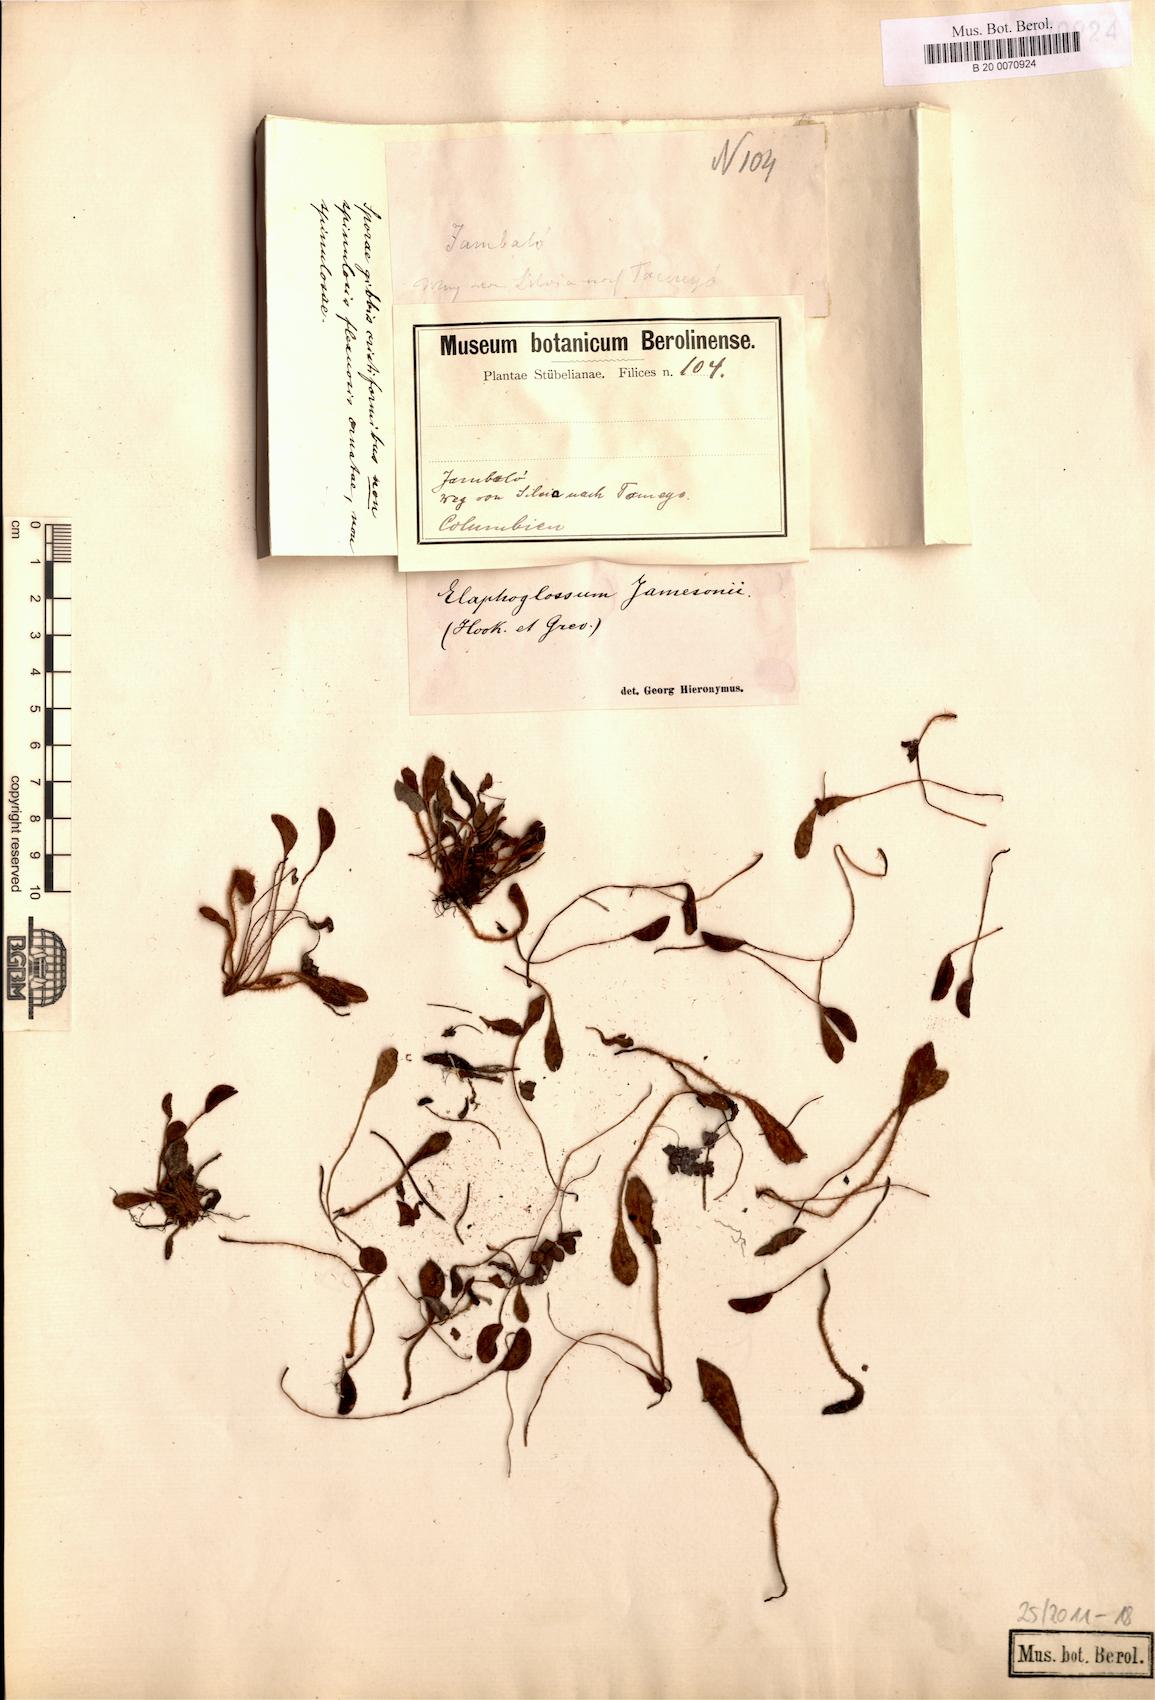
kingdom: Plantae
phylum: Tracheophyta
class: Polypodiopsida
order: Polypodiales
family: Dryopteridaceae
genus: Elaphoglossum
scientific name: Elaphoglossum piloselloides
